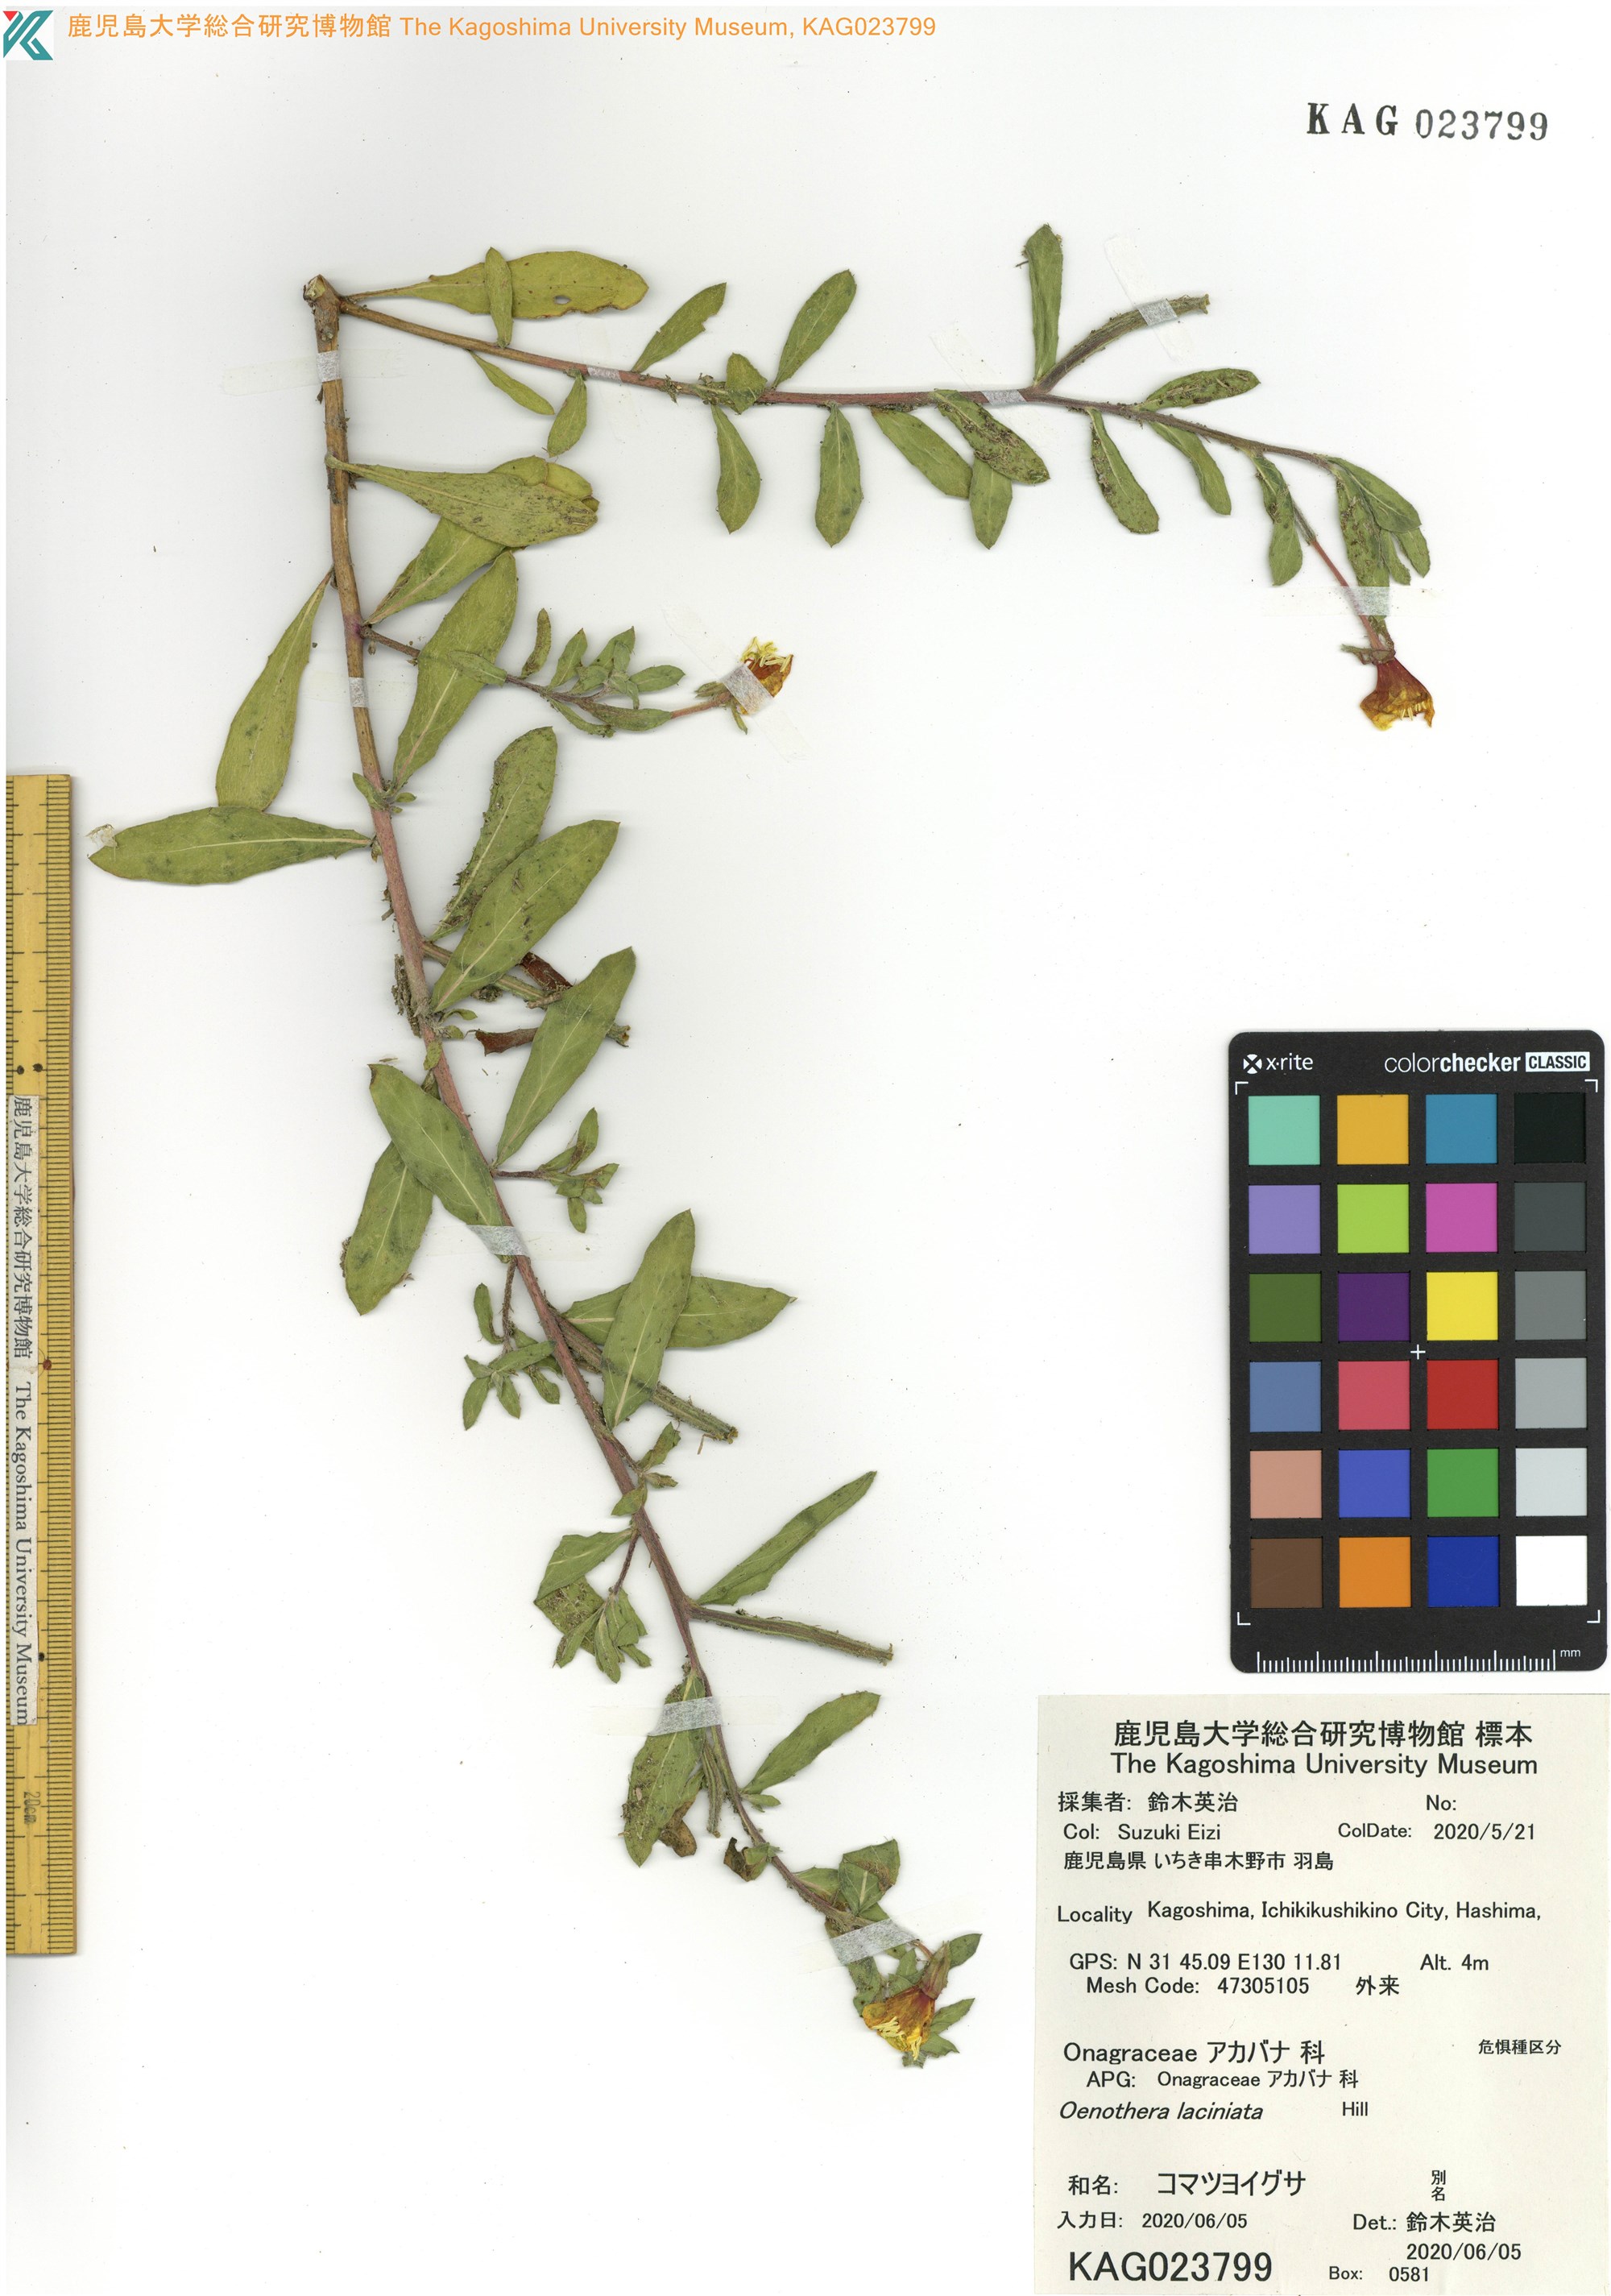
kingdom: Plantae
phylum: Tracheophyta
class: Magnoliopsida
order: Myrtales
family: Onagraceae
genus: Oenothera
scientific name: Oenothera laciniata
